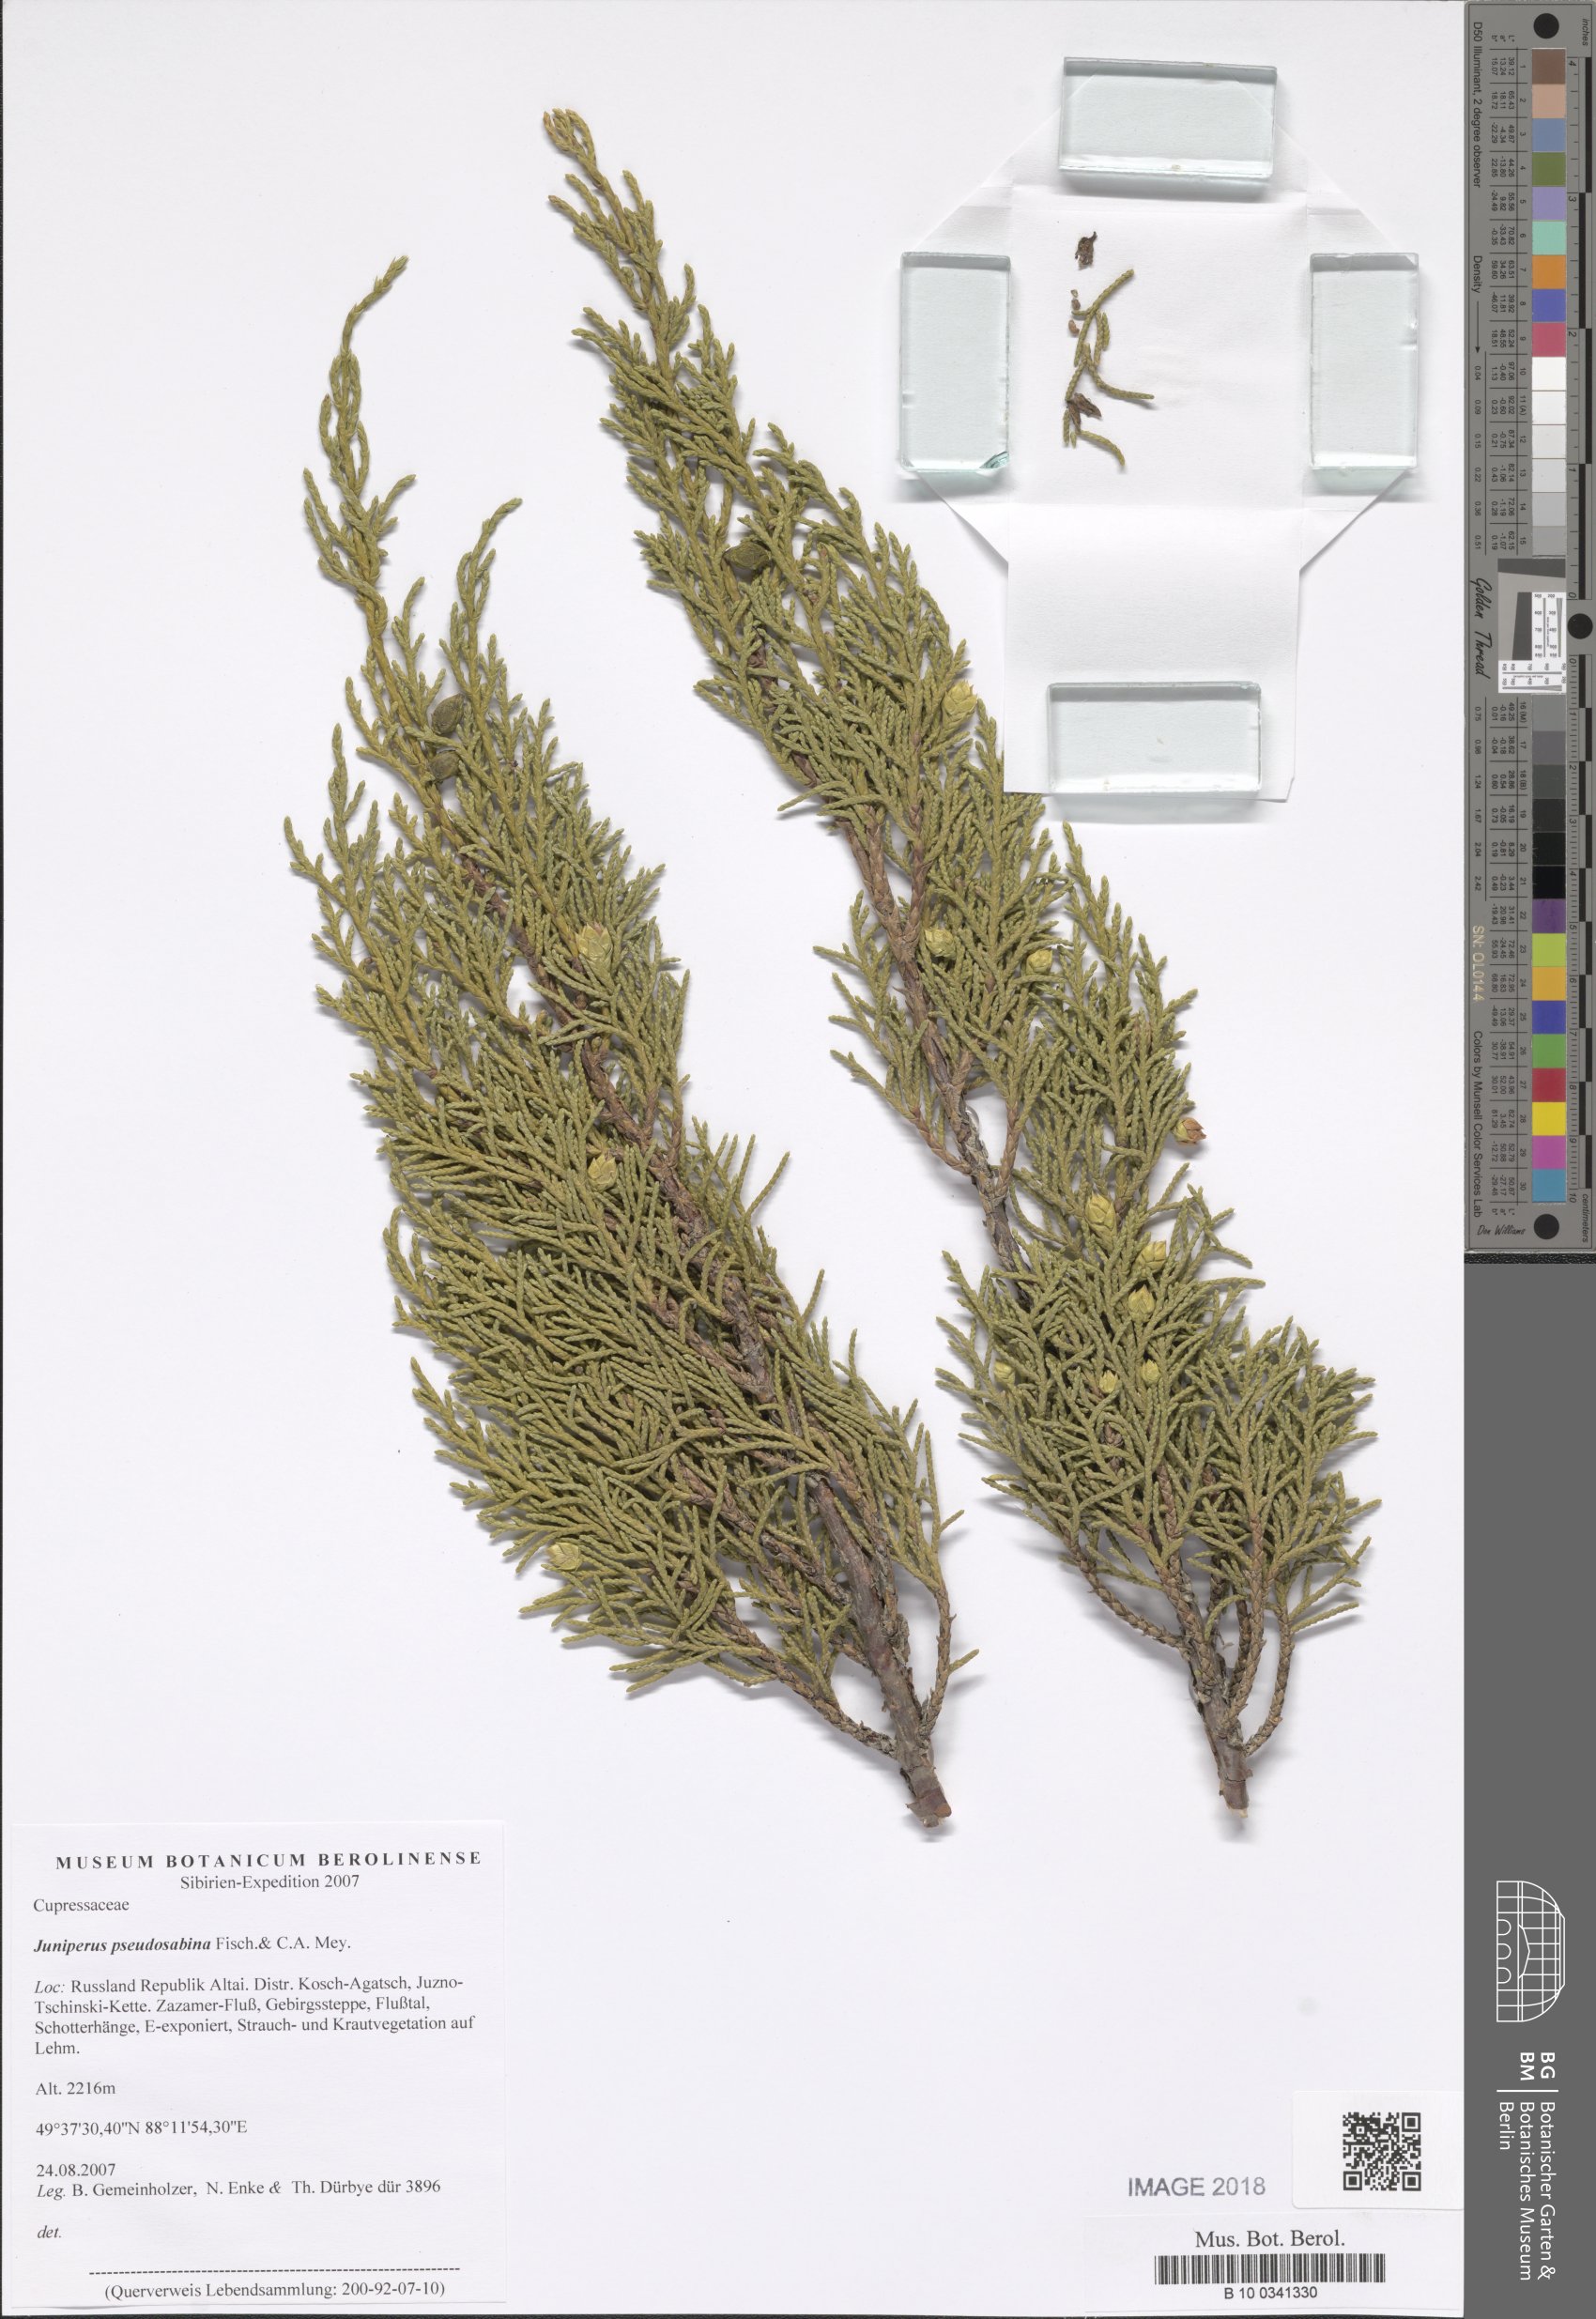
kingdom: Plantae
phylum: Tracheophyta
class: Pinopsida
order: Pinales
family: Cupressaceae
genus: Juniperus
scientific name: Juniperus pseudosabina
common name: Turkestan juniper
